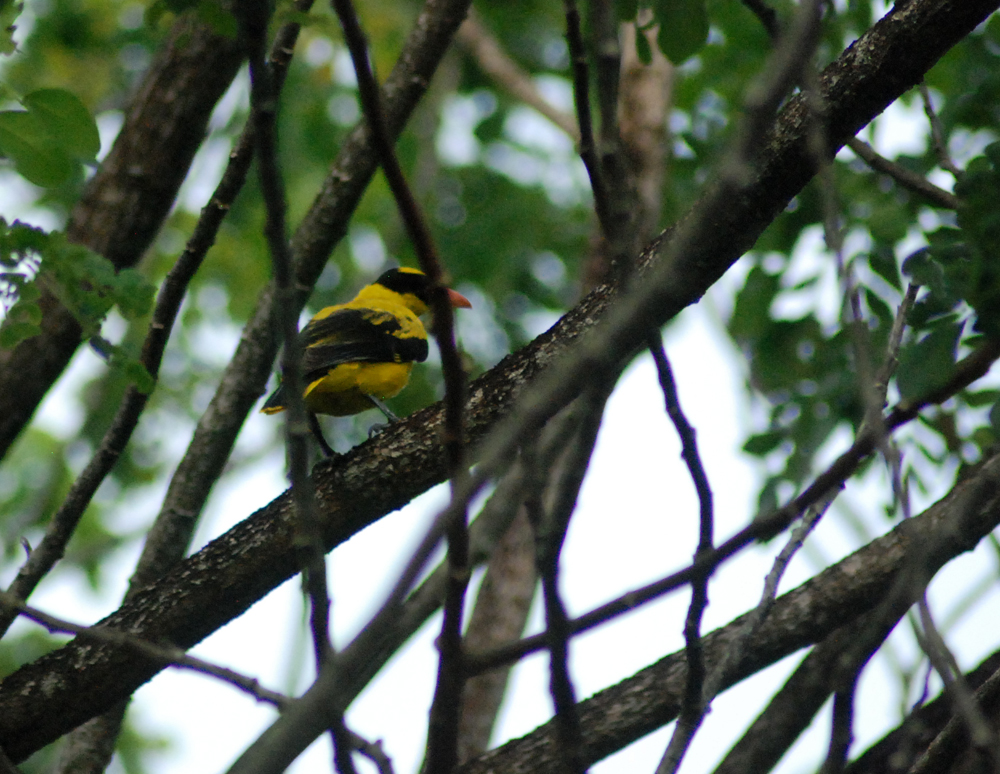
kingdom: Animalia
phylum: Chordata
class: Aves
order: Passeriformes
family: Oriolidae
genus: Oriolus
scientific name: Oriolus chinensis
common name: Black-naped oriole
